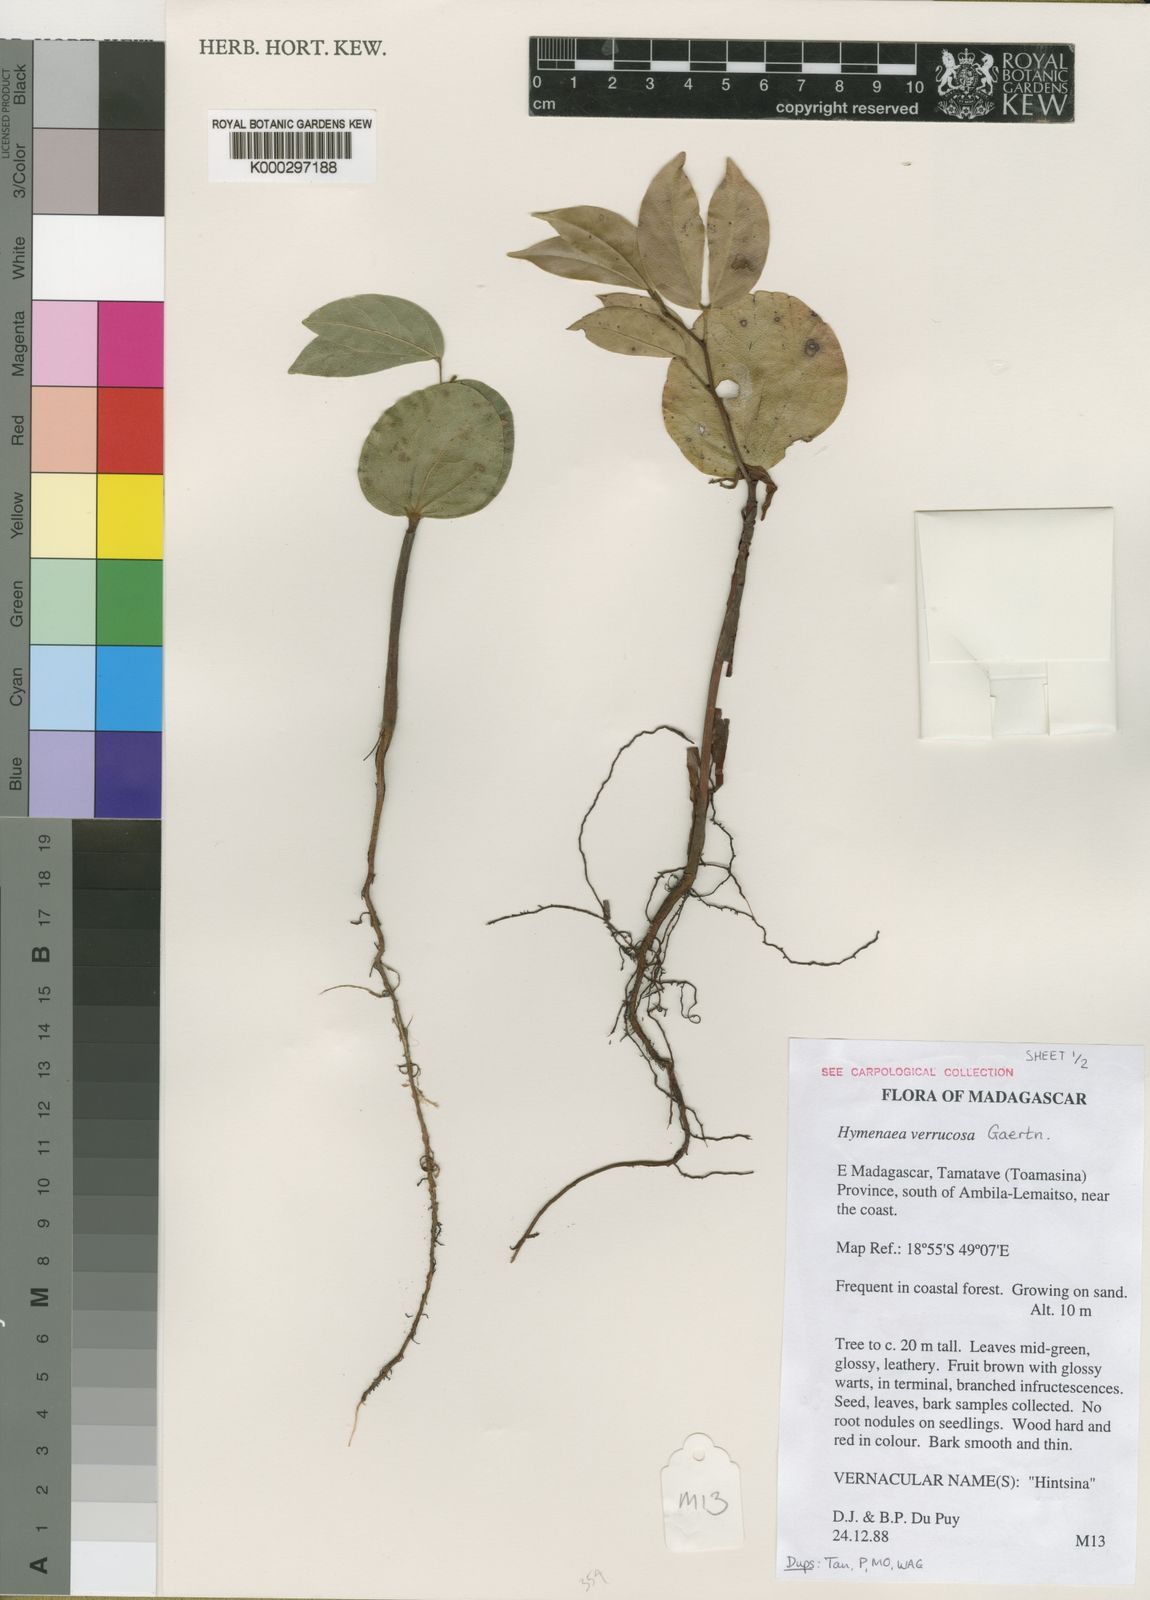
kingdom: Plantae
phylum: Tracheophyta
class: Magnoliopsida
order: Fabales
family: Fabaceae
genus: Hymenaea
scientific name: Hymenaea verrucosa
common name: East african copal
